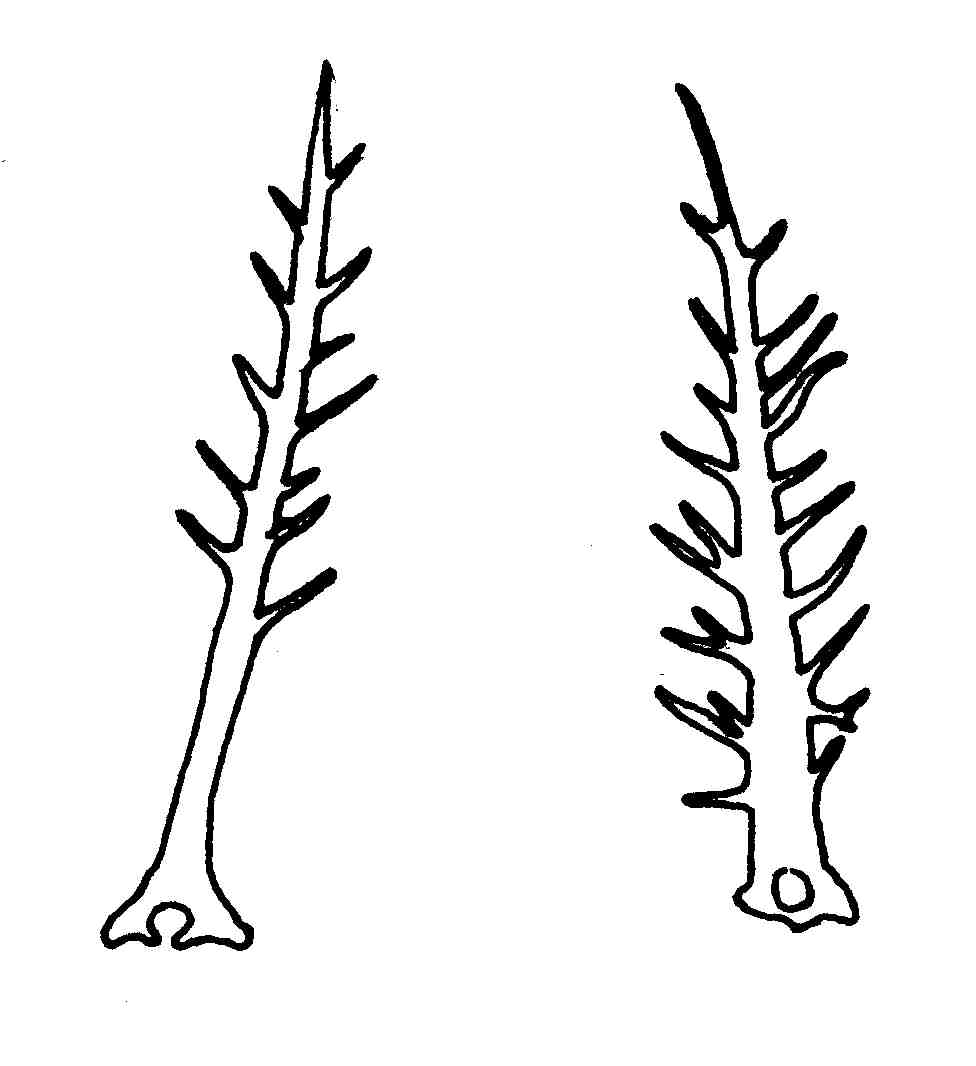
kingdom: Animalia
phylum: Chordata
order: Perciformes
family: Tripterygiidae
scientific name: Tripterygiidae
